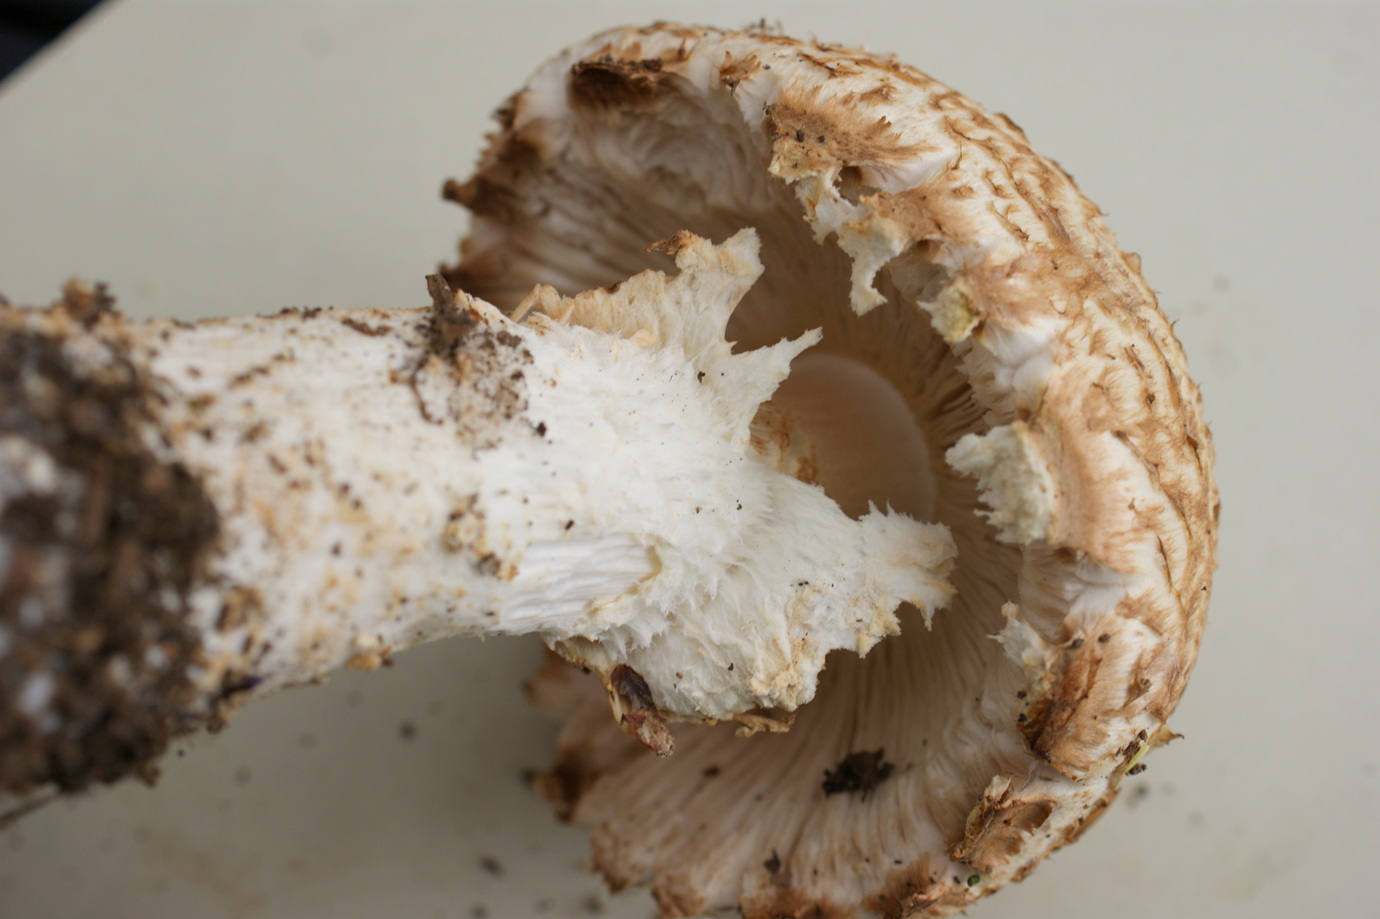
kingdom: Fungi
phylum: Basidiomycota
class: Agaricomycetes
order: Agaricales
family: Agaricaceae
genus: Agaricus
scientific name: Agaricus augustus
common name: prægtig champignon
